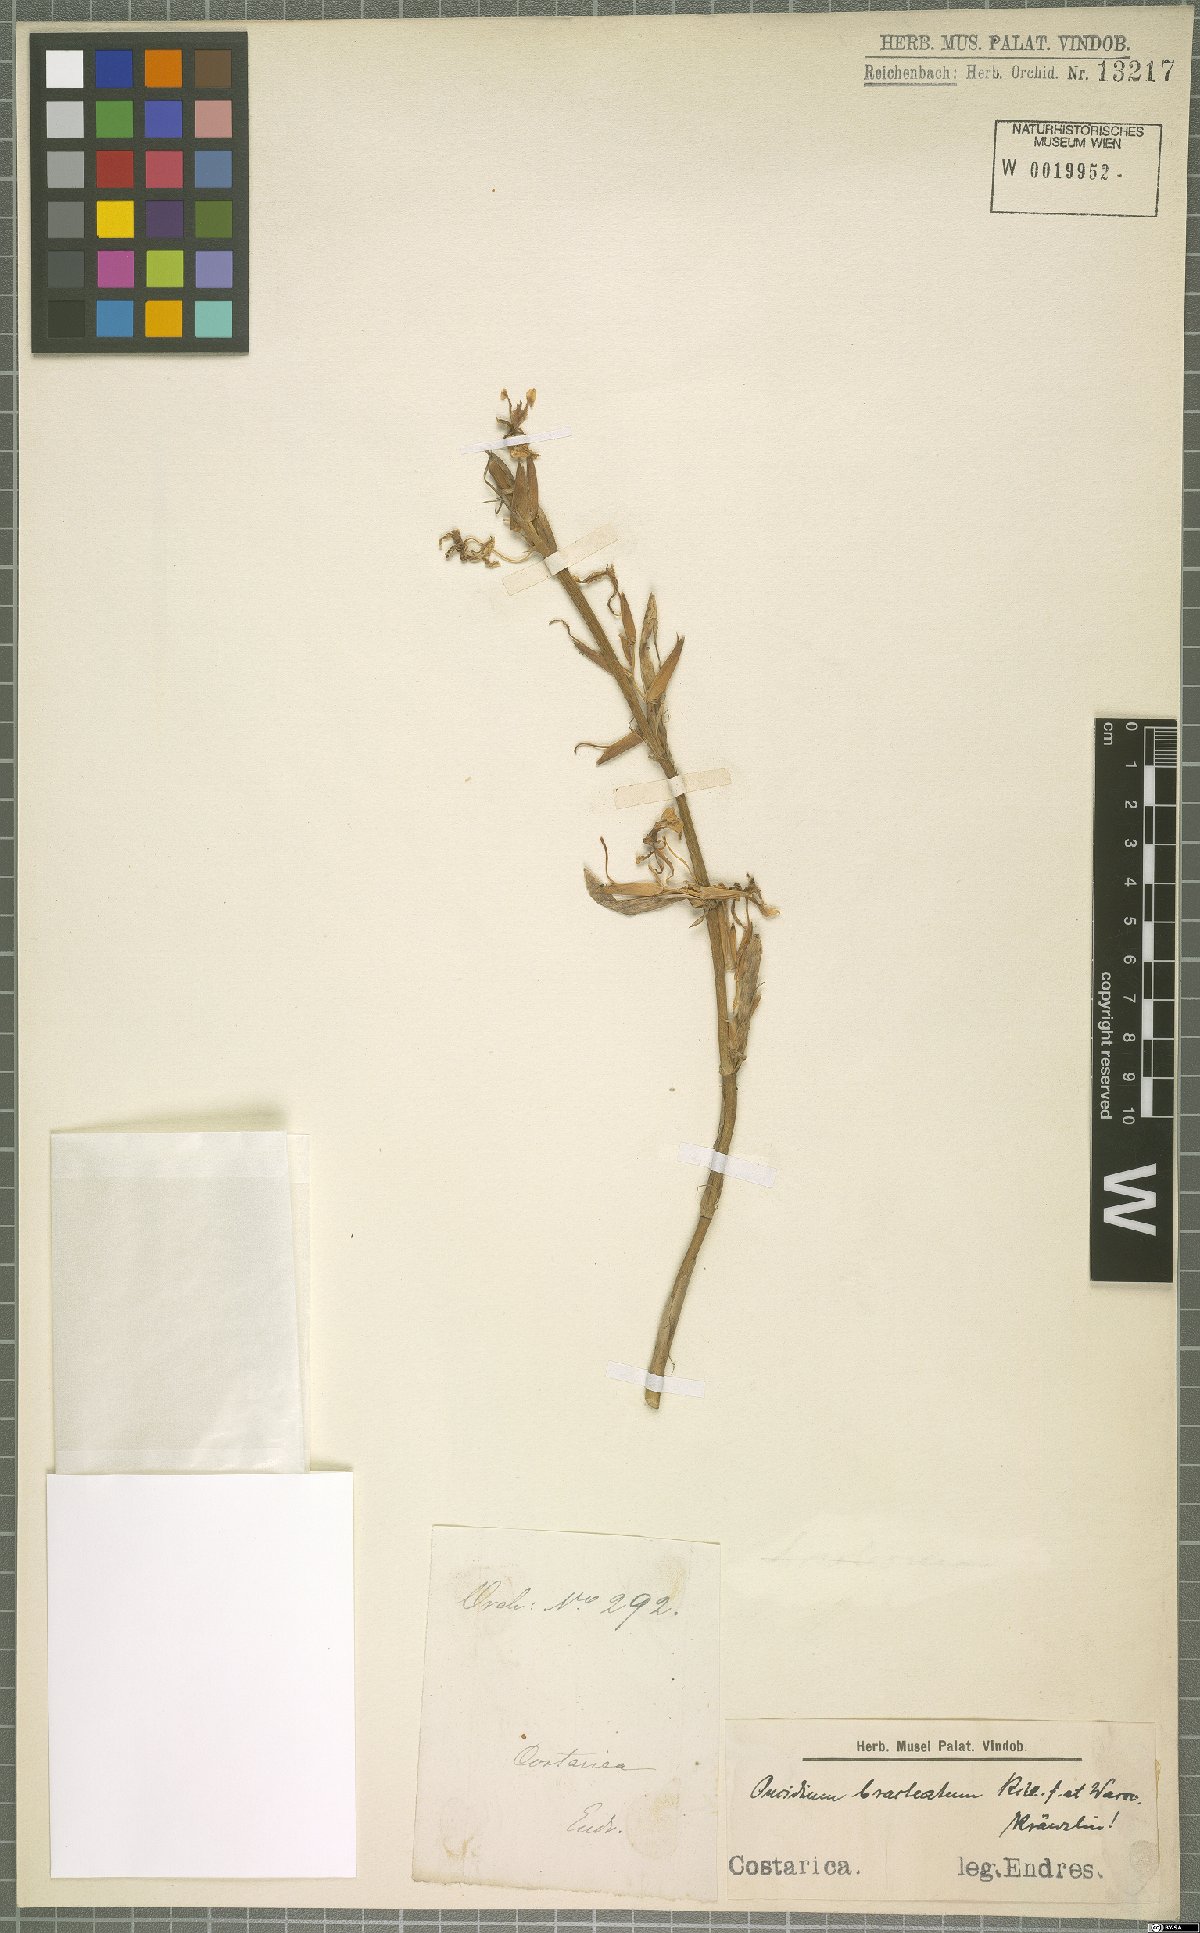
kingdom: Plantae
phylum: Tracheophyta
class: Liliopsida
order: Asparagales
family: Orchidaceae
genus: Oncidium
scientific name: Oncidium bracteatum
